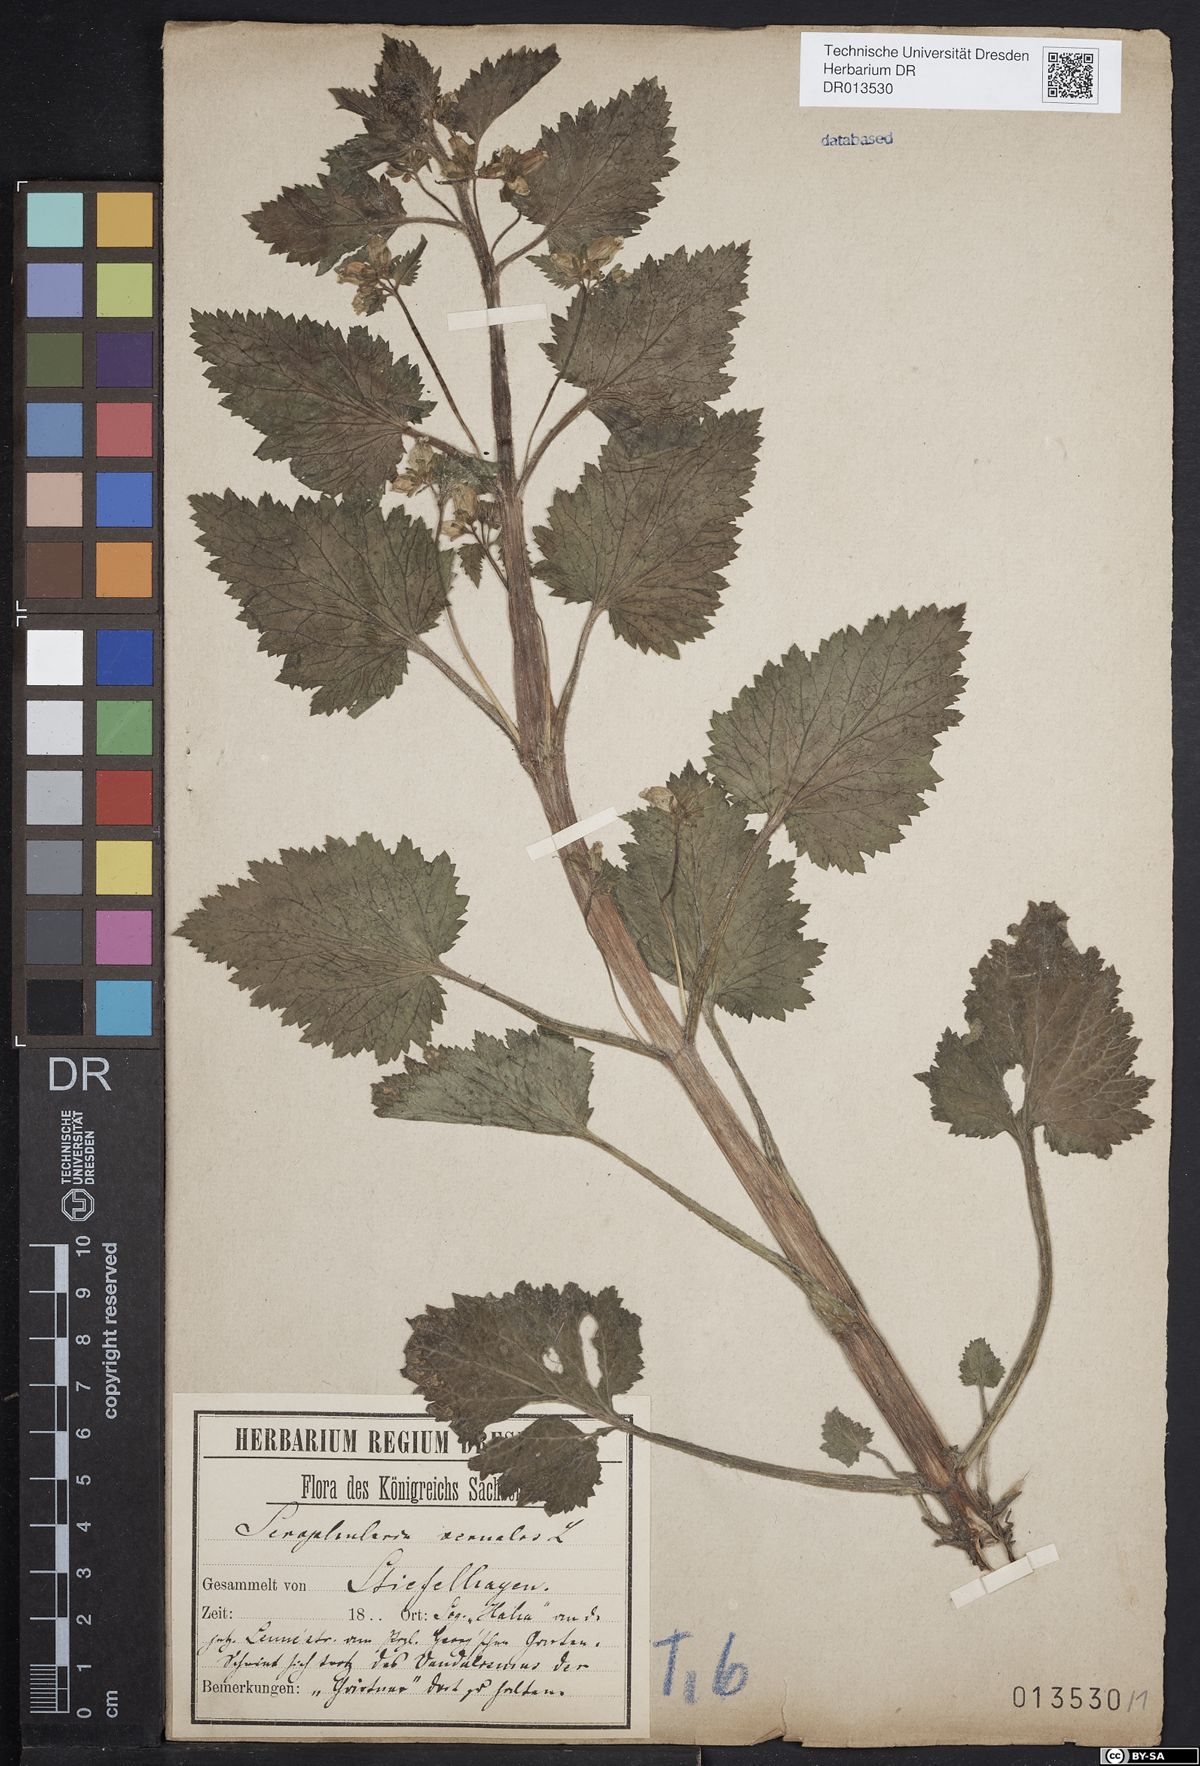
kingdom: Plantae
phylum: Tracheophyta
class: Magnoliopsida
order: Lamiales
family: Scrophulariaceae
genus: Scrophularia
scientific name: Scrophularia vernalis
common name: Yellow figwort
